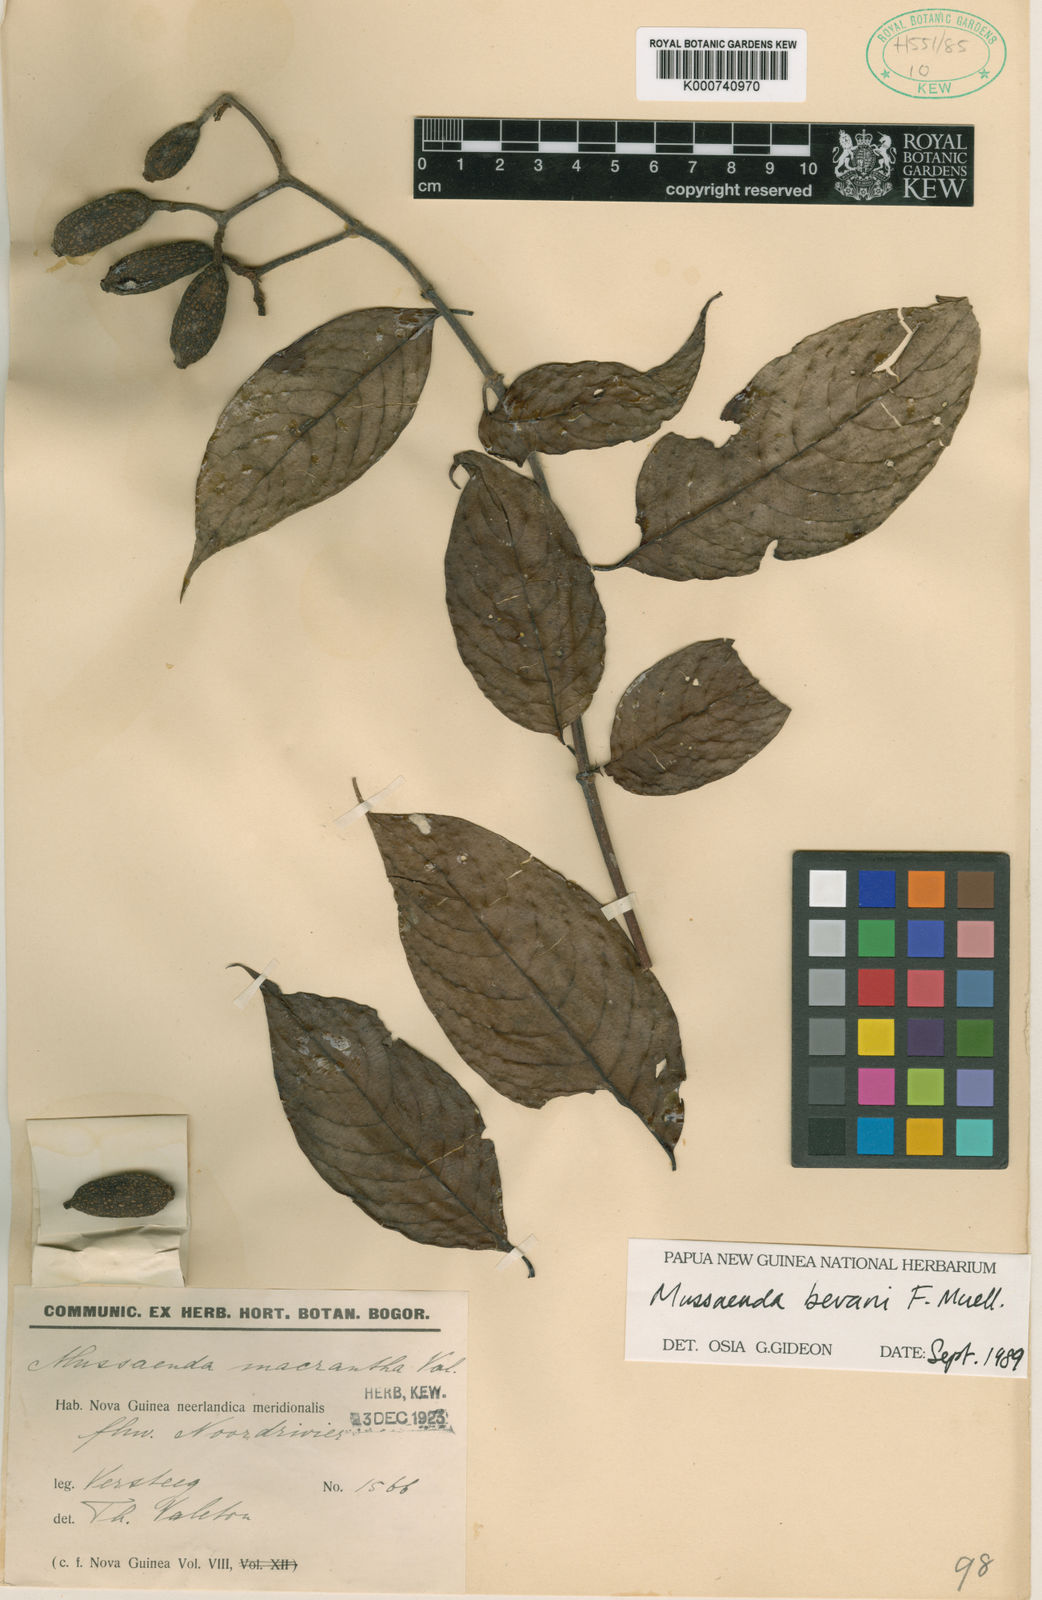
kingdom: Plantae
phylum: Tracheophyta
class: Magnoliopsida
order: Gentianales
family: Rubiaceae
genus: Mussaenda
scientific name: Mussaenda bevanii
